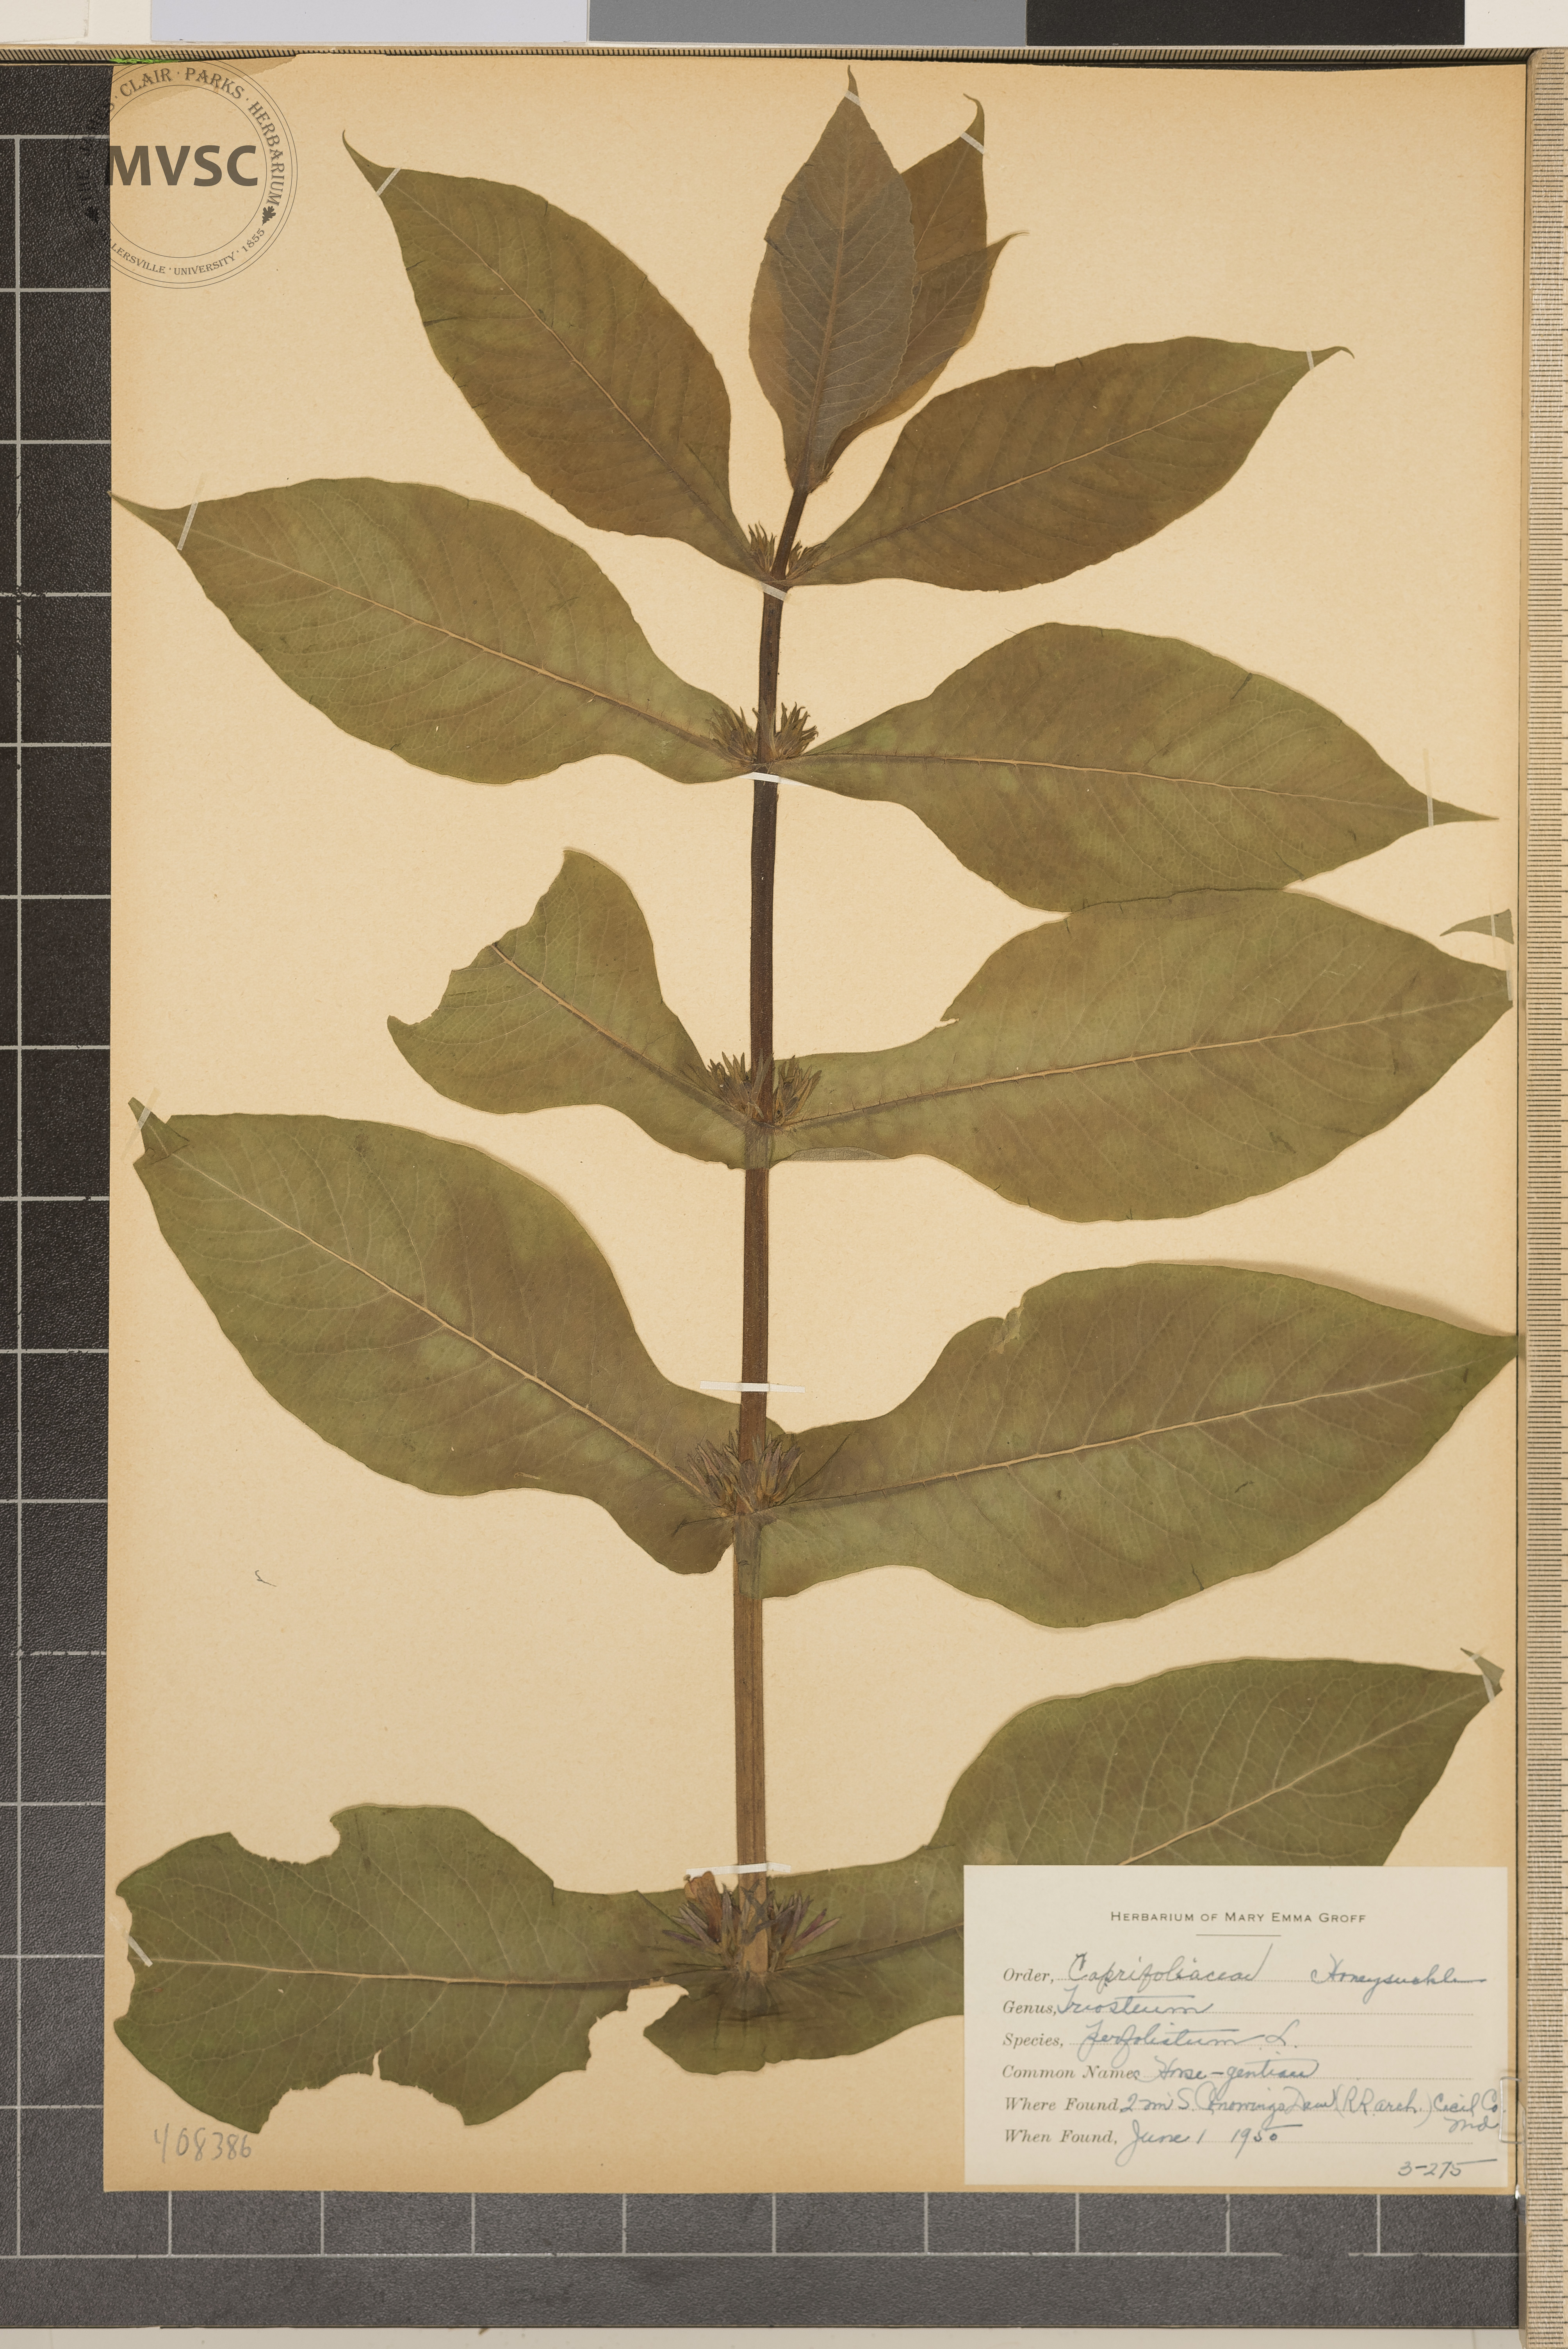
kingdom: Plantae
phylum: Tracheophyta
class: Magnoliopsida
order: Dipsacales
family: Caprifoliaceae
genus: Triosteum
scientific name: Triosteum perfoliatum
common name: Horse-gentian
